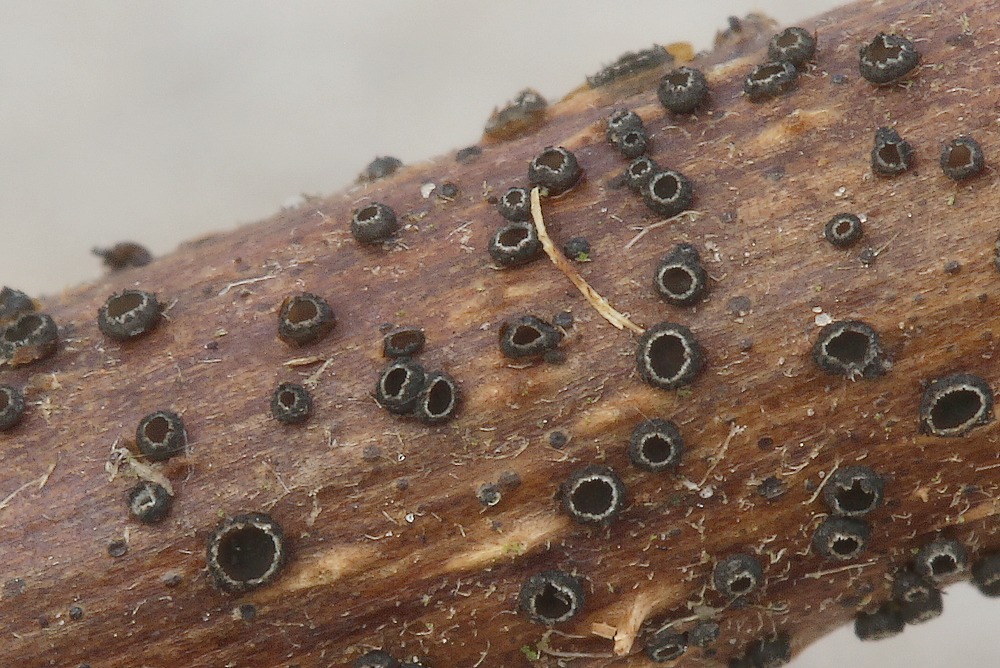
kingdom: Fungi
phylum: Ascomycota
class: Leotiomycetes
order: Helotiales
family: Ploettnerulaceae
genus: Pyrenopeziza
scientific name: Pyrenopeziza rubi
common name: hindbær-kerneskive
